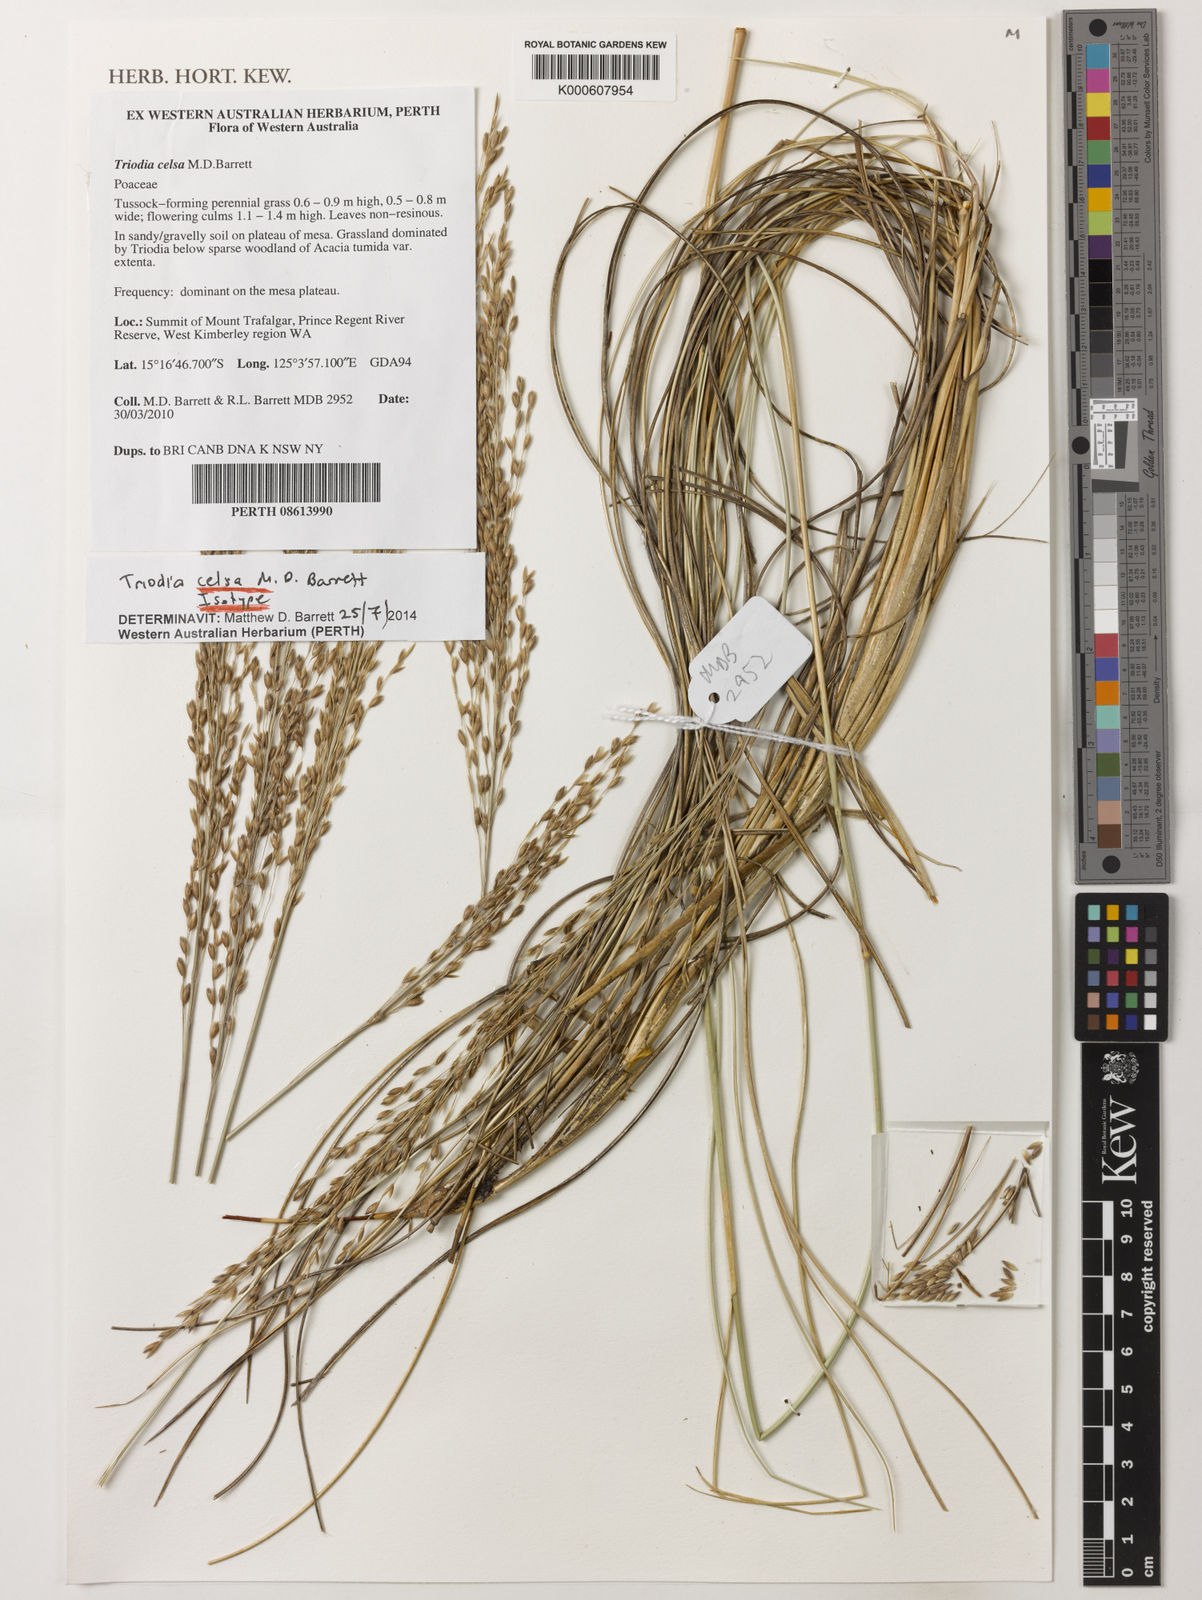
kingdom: Plantae
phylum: Tracheophyta
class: Liliopsida
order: Poales
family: Poaceae
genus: Triodia
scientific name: Triodia celsa
